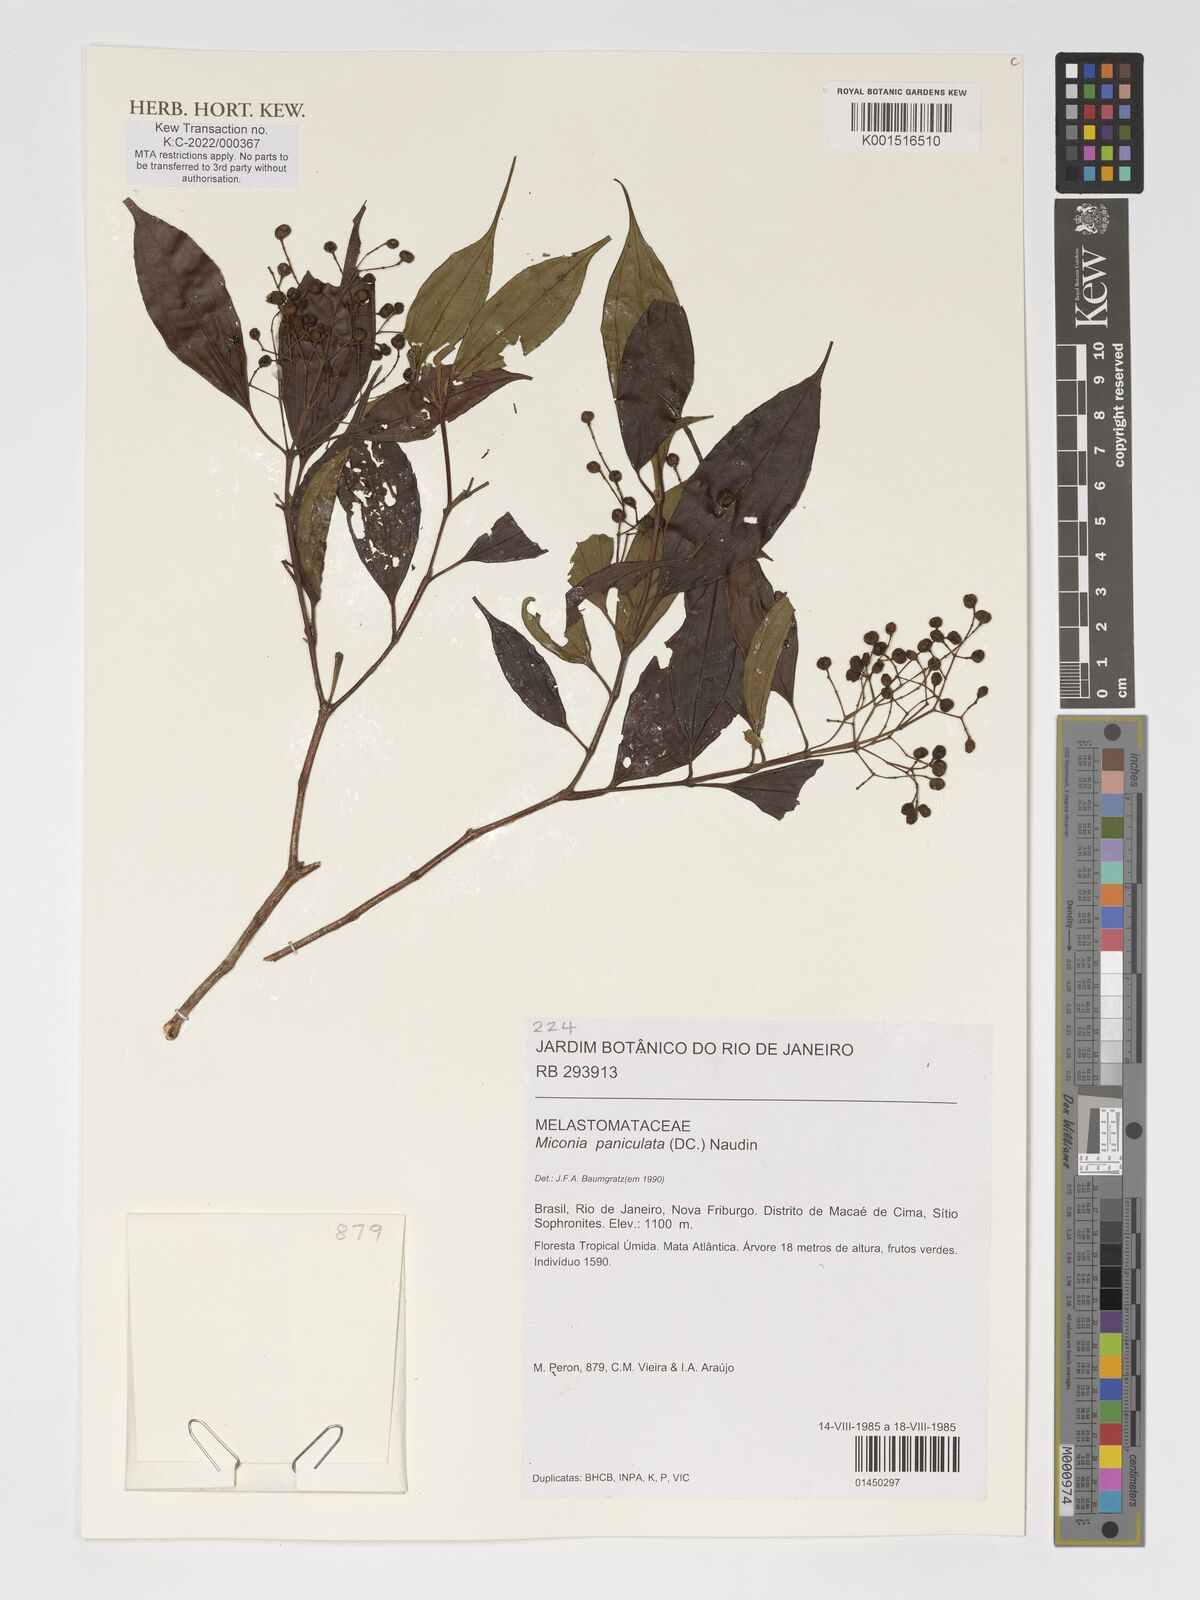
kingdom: Plantae
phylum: Tracheophyta
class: Magnoliopsida
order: Myrtales
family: Melastomataceae
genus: Miconia
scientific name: Miconia paniculata
